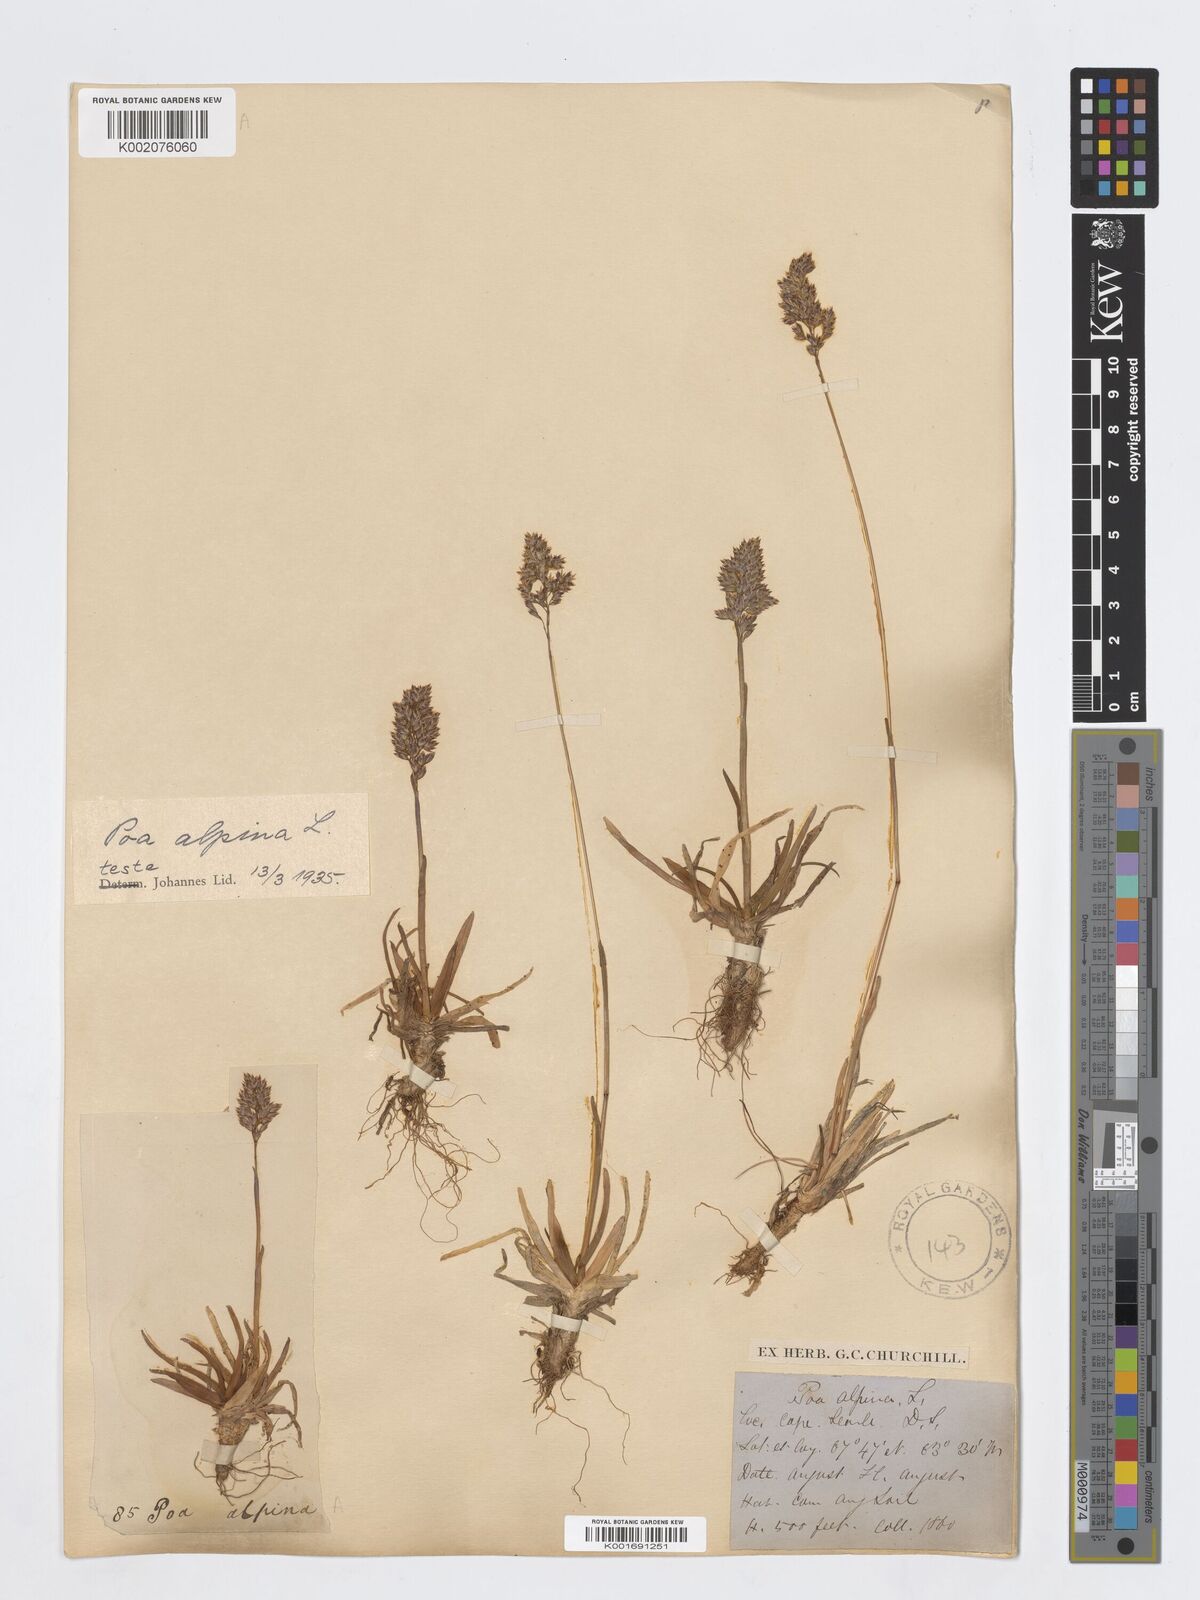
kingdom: Plantae
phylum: Tracheophyta
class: Liliopsida
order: Poales
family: Poaceae
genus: Poa
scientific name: Poa alpina
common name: Alpine bluegrass
